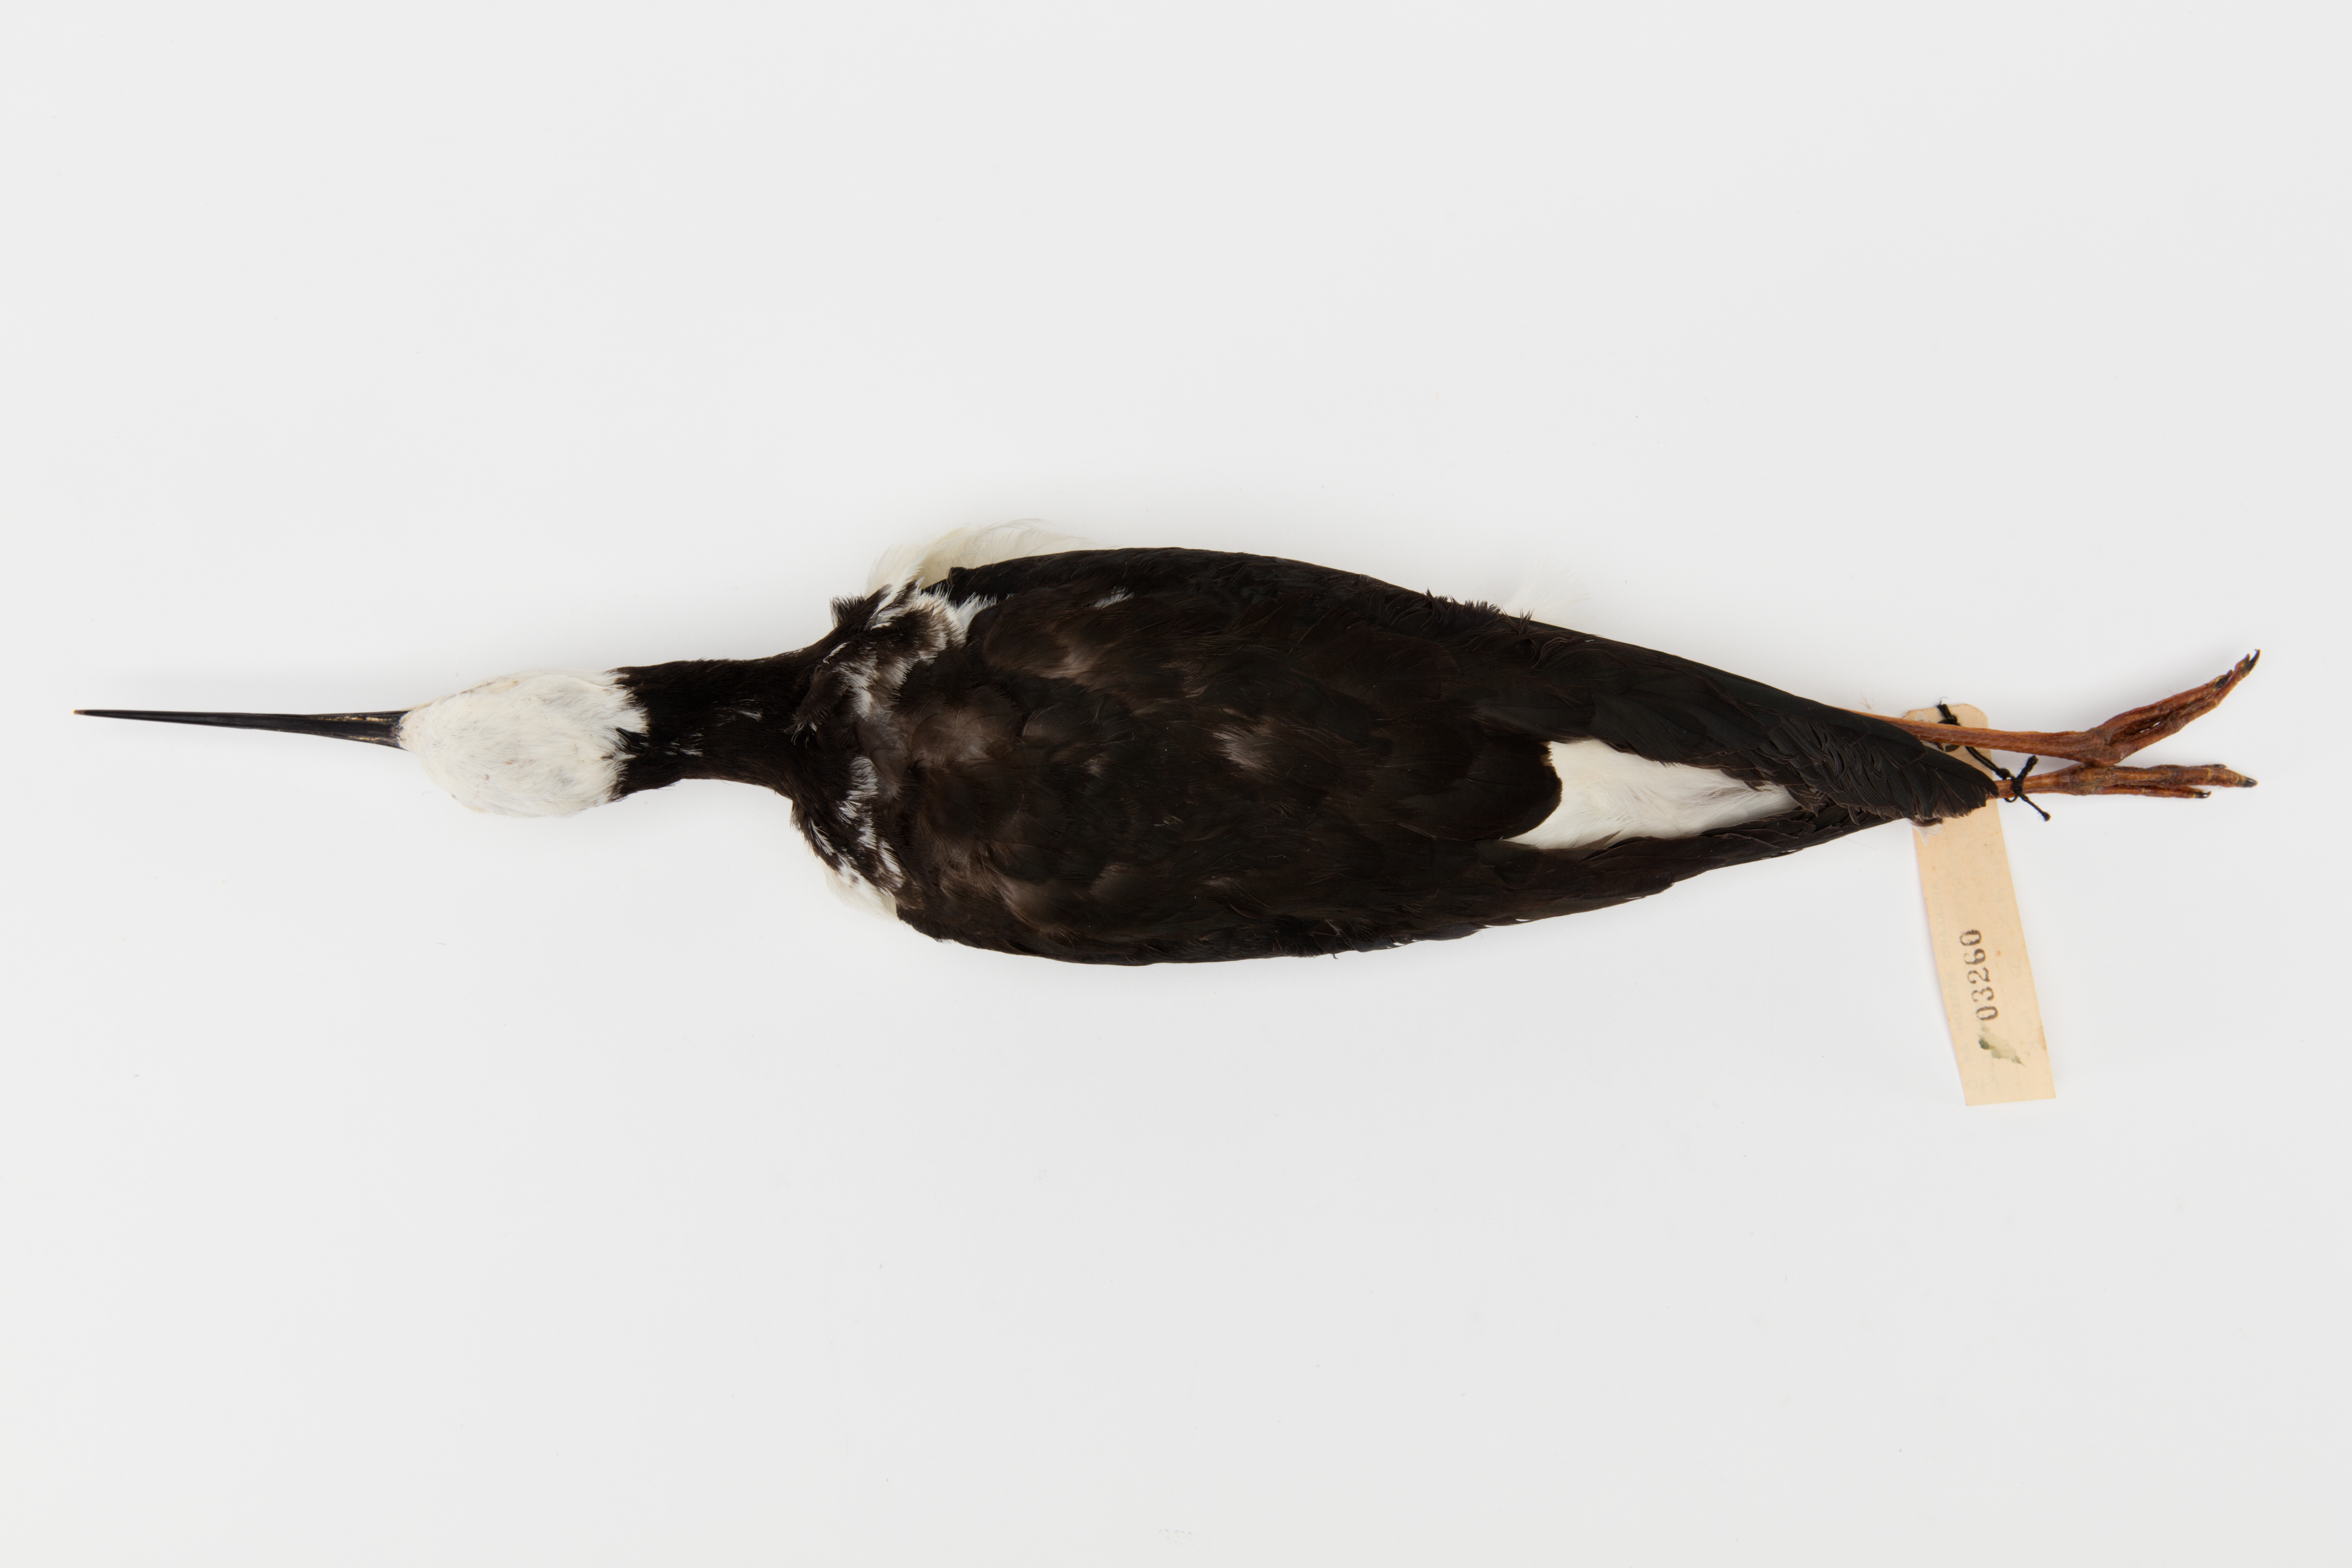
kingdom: Animalia
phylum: Chordata
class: Aves
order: Charadriiformes
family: Recurvirostridae
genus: Himantopus
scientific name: Himantopus himantopus
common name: Black-winged stilt
